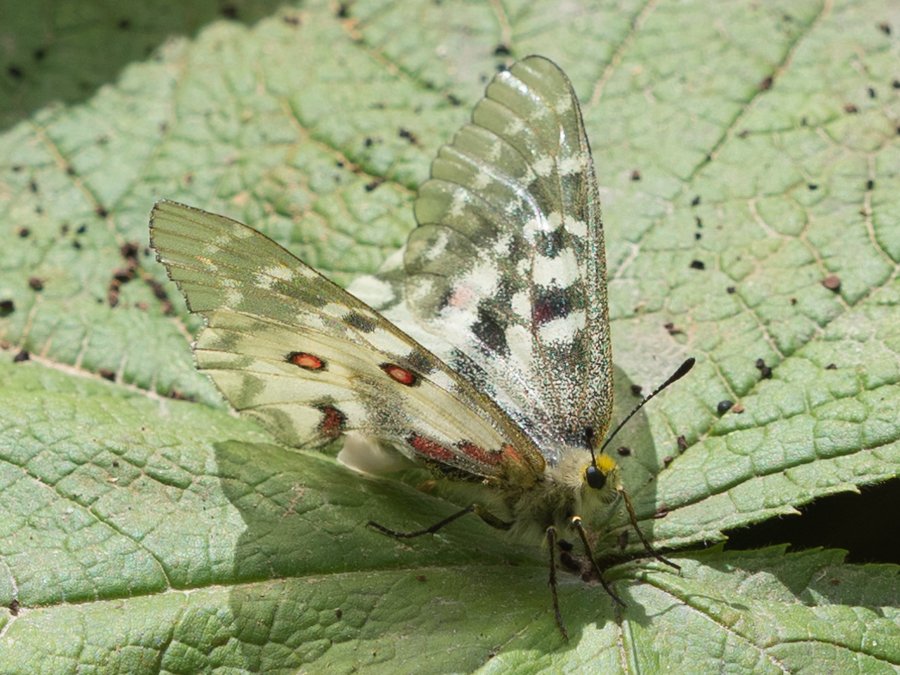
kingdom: Animalia
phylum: Arthropoda
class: Insecta
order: Lepidoptera
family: Papilionidae
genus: Parnassius
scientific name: Parnassius smintheus
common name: Rocky Mountain Parnassian
